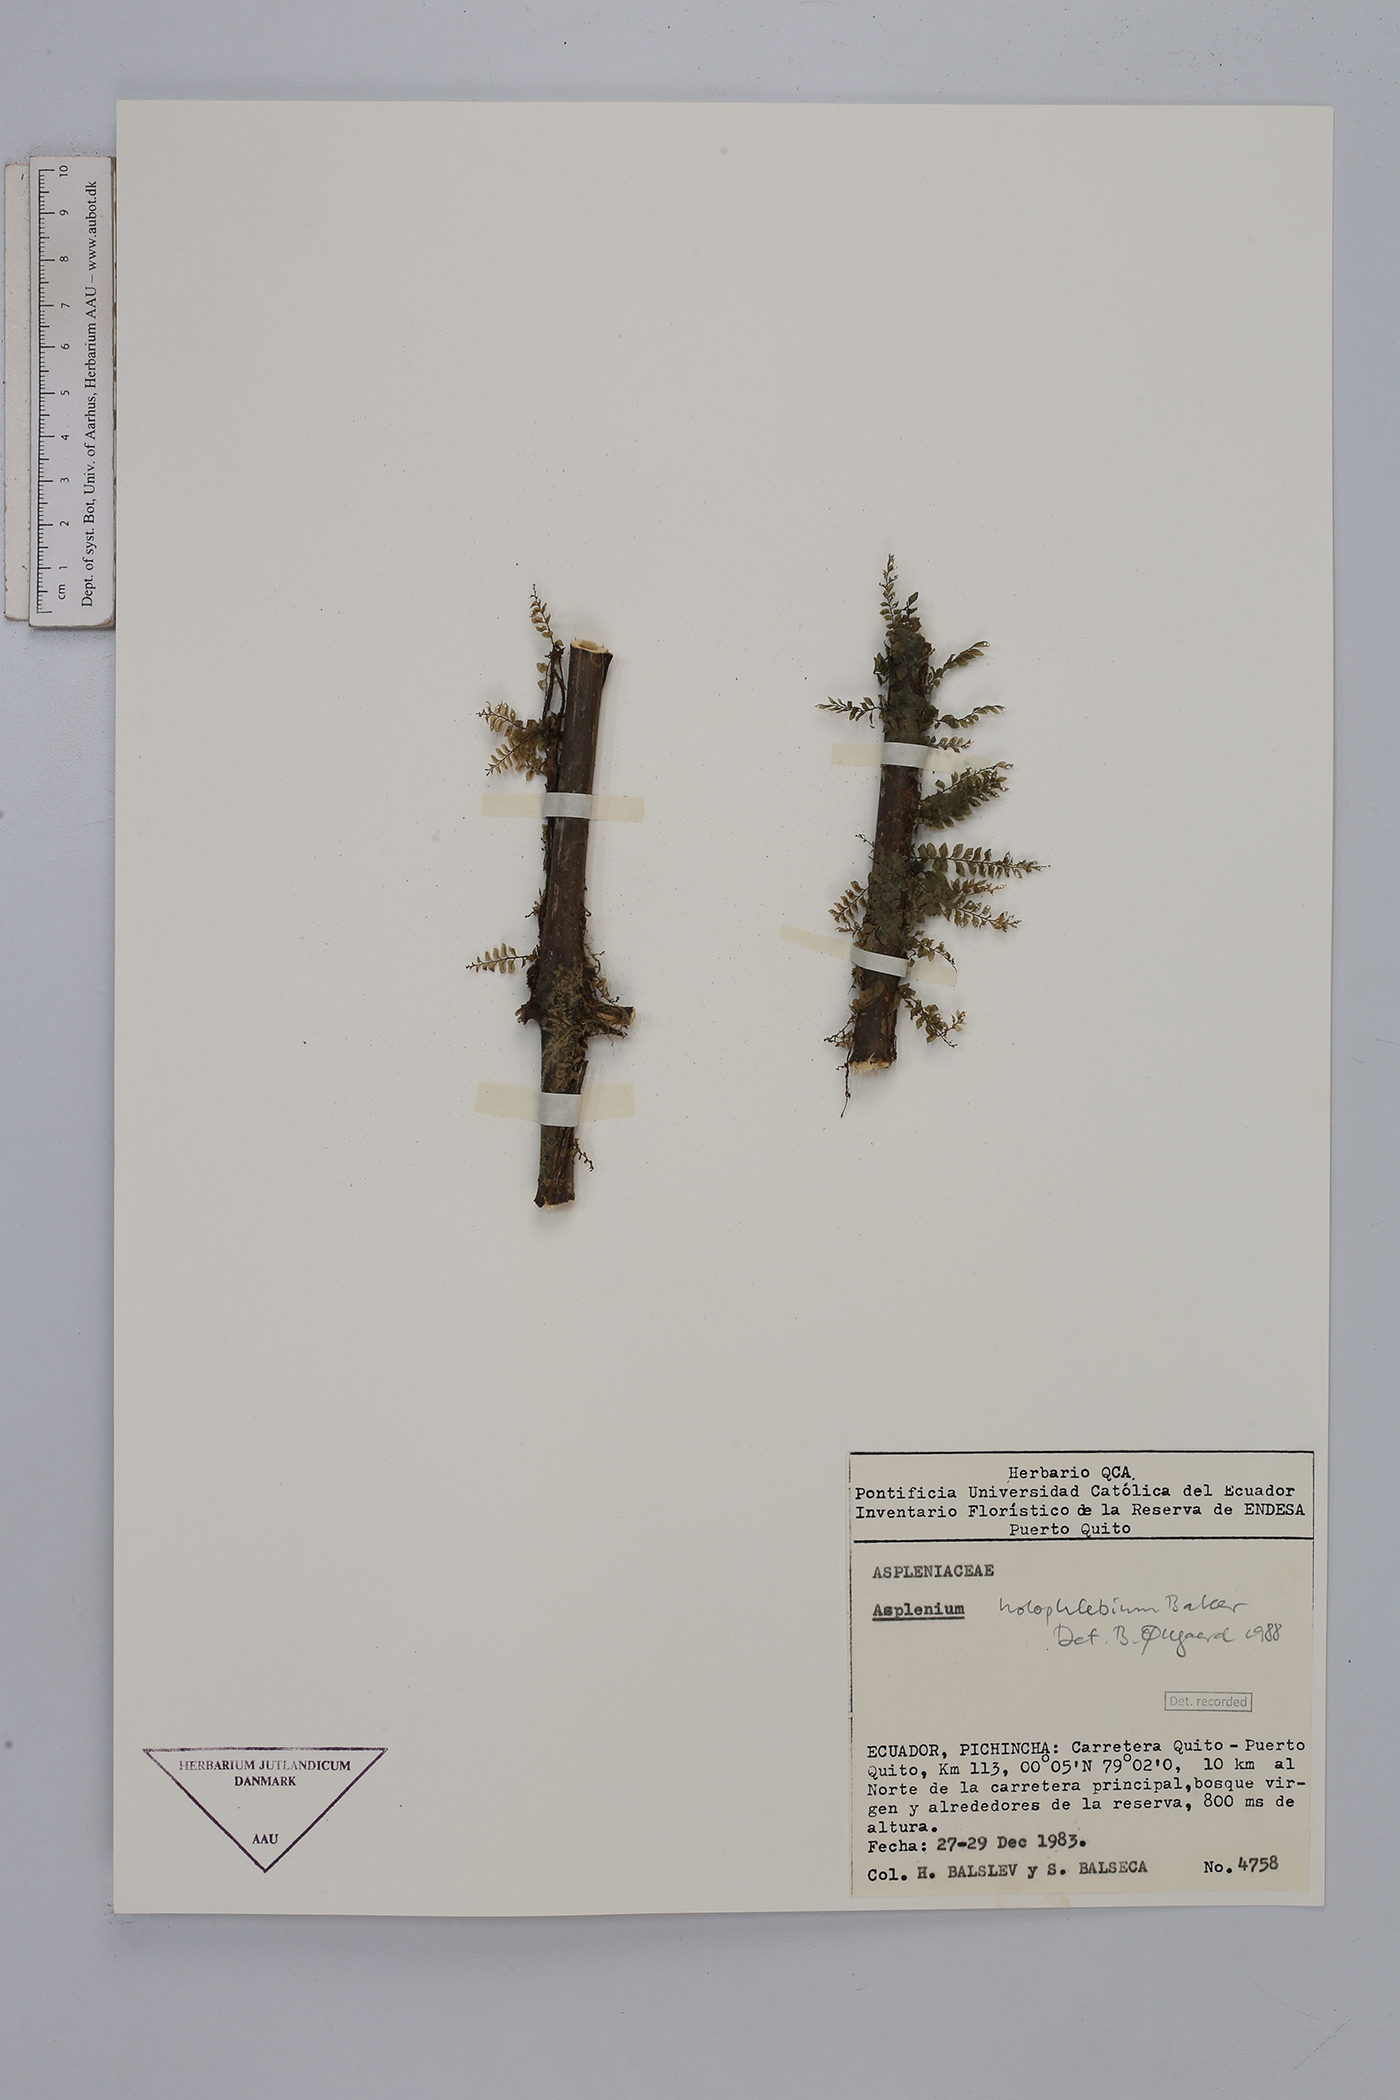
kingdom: Plantae
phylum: Tracheophyta
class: Polypodiopsida
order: Polypodiales
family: Aspleniaceae
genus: Asplenium
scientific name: Asplenium holophlebium
